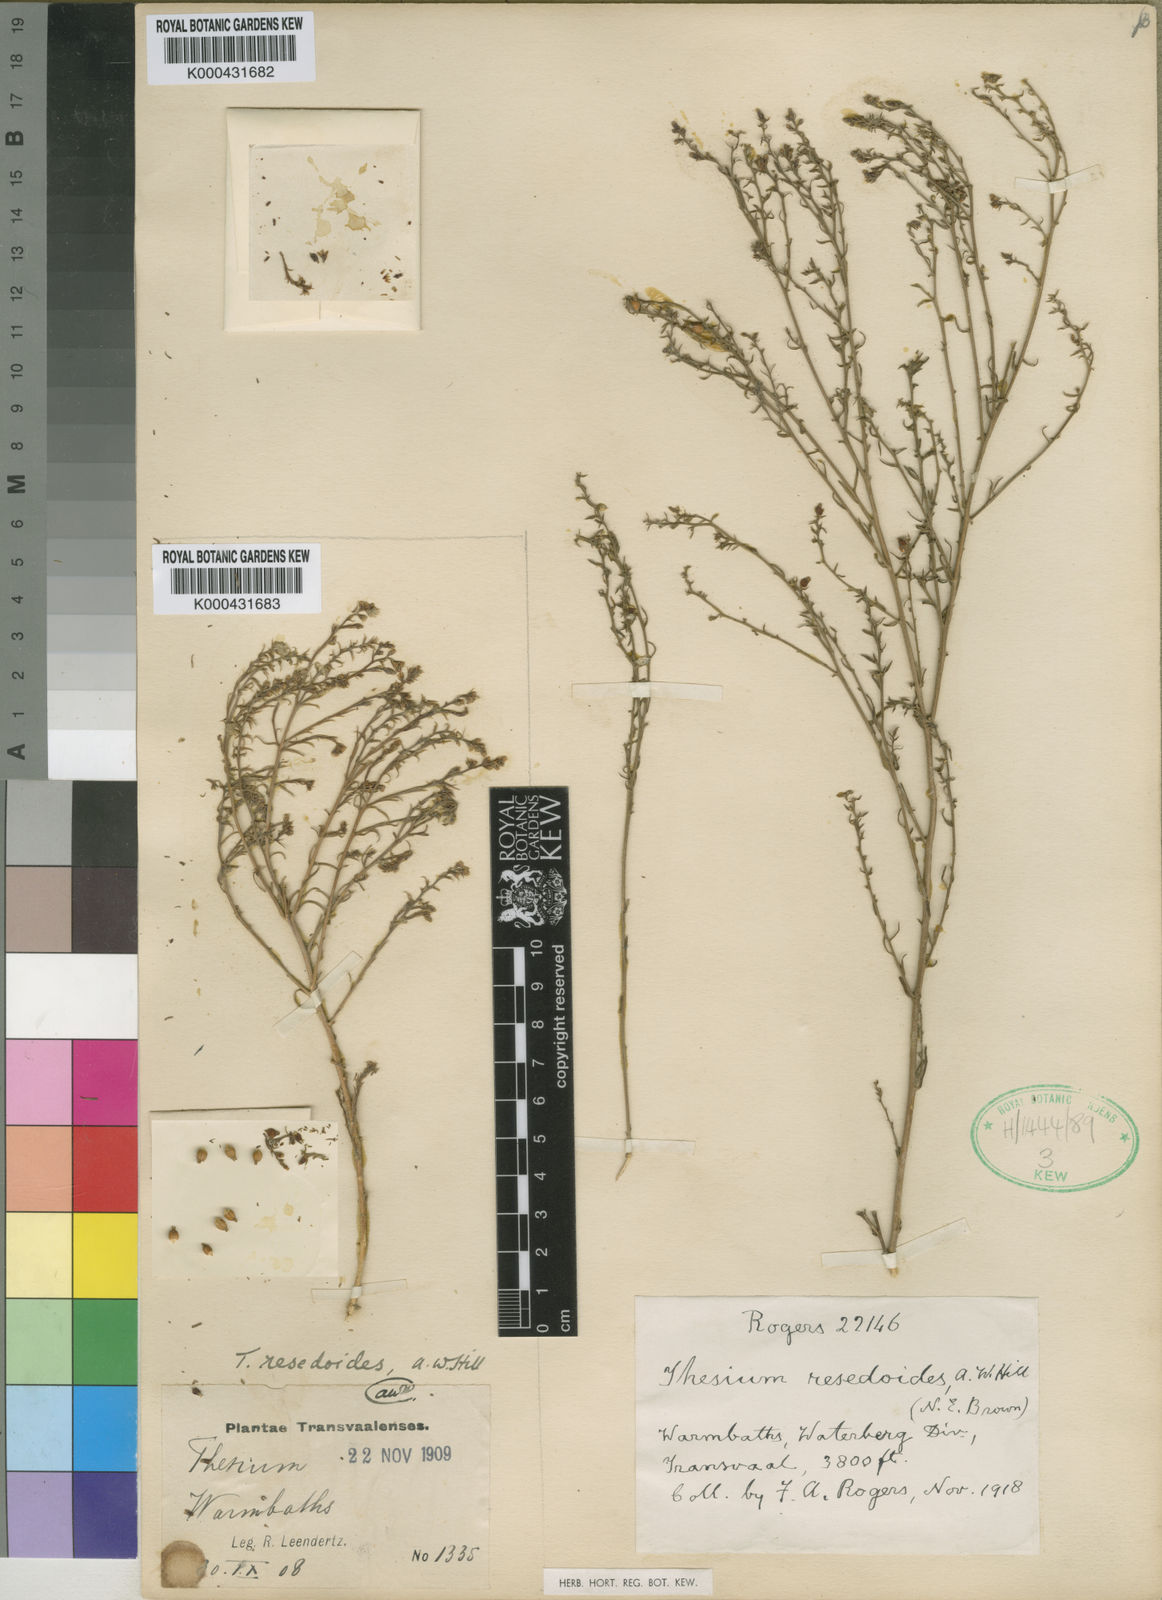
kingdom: Plantae
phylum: Tracheophyta
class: Magnoliopsida
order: Santalales
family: Thesiaceae
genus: Thesium
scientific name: Thesium resedoides
